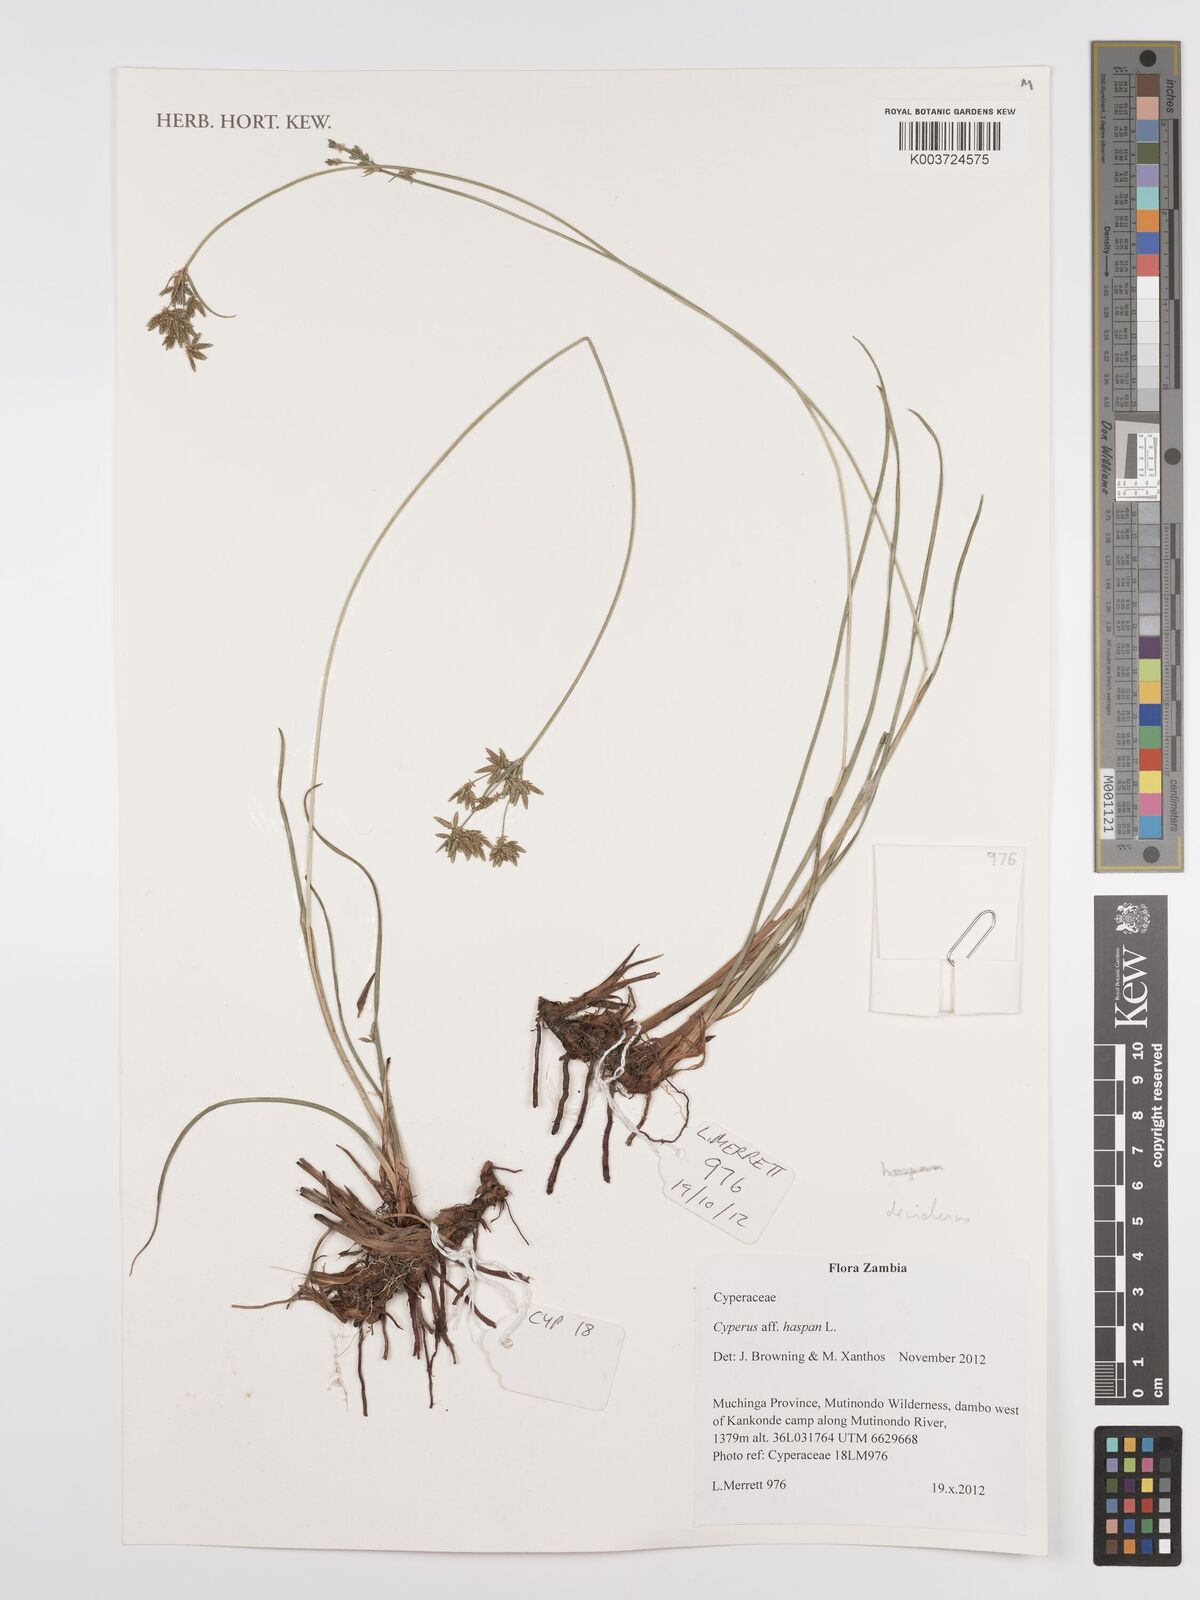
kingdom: Plantae
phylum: Tracheophyta
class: Liliopsida
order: Poales
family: Cyperaceae
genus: Cyperus
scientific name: Cyperus deciduus
